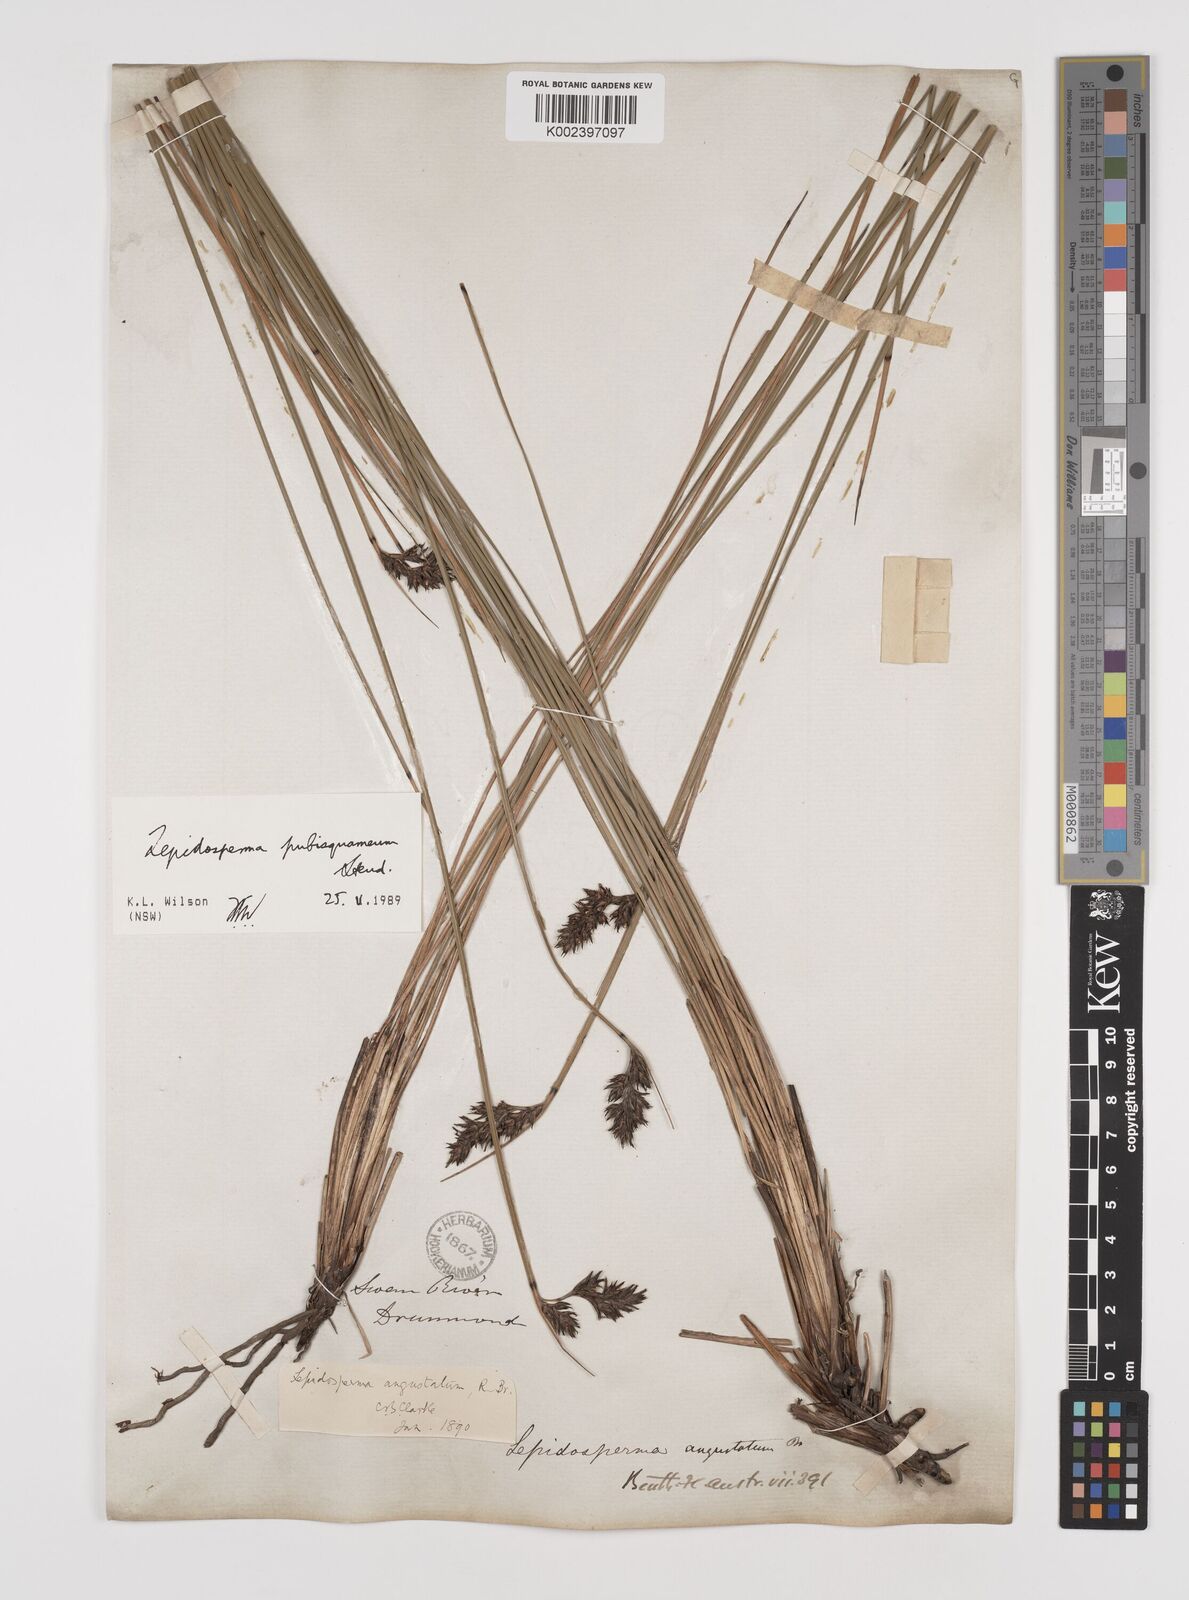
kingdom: Plantae
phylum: Tracheophyta
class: Liliopsida
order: Poales
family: Cyperaceae
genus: Lepidosperma
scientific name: Lepidosperma pubisquameum
